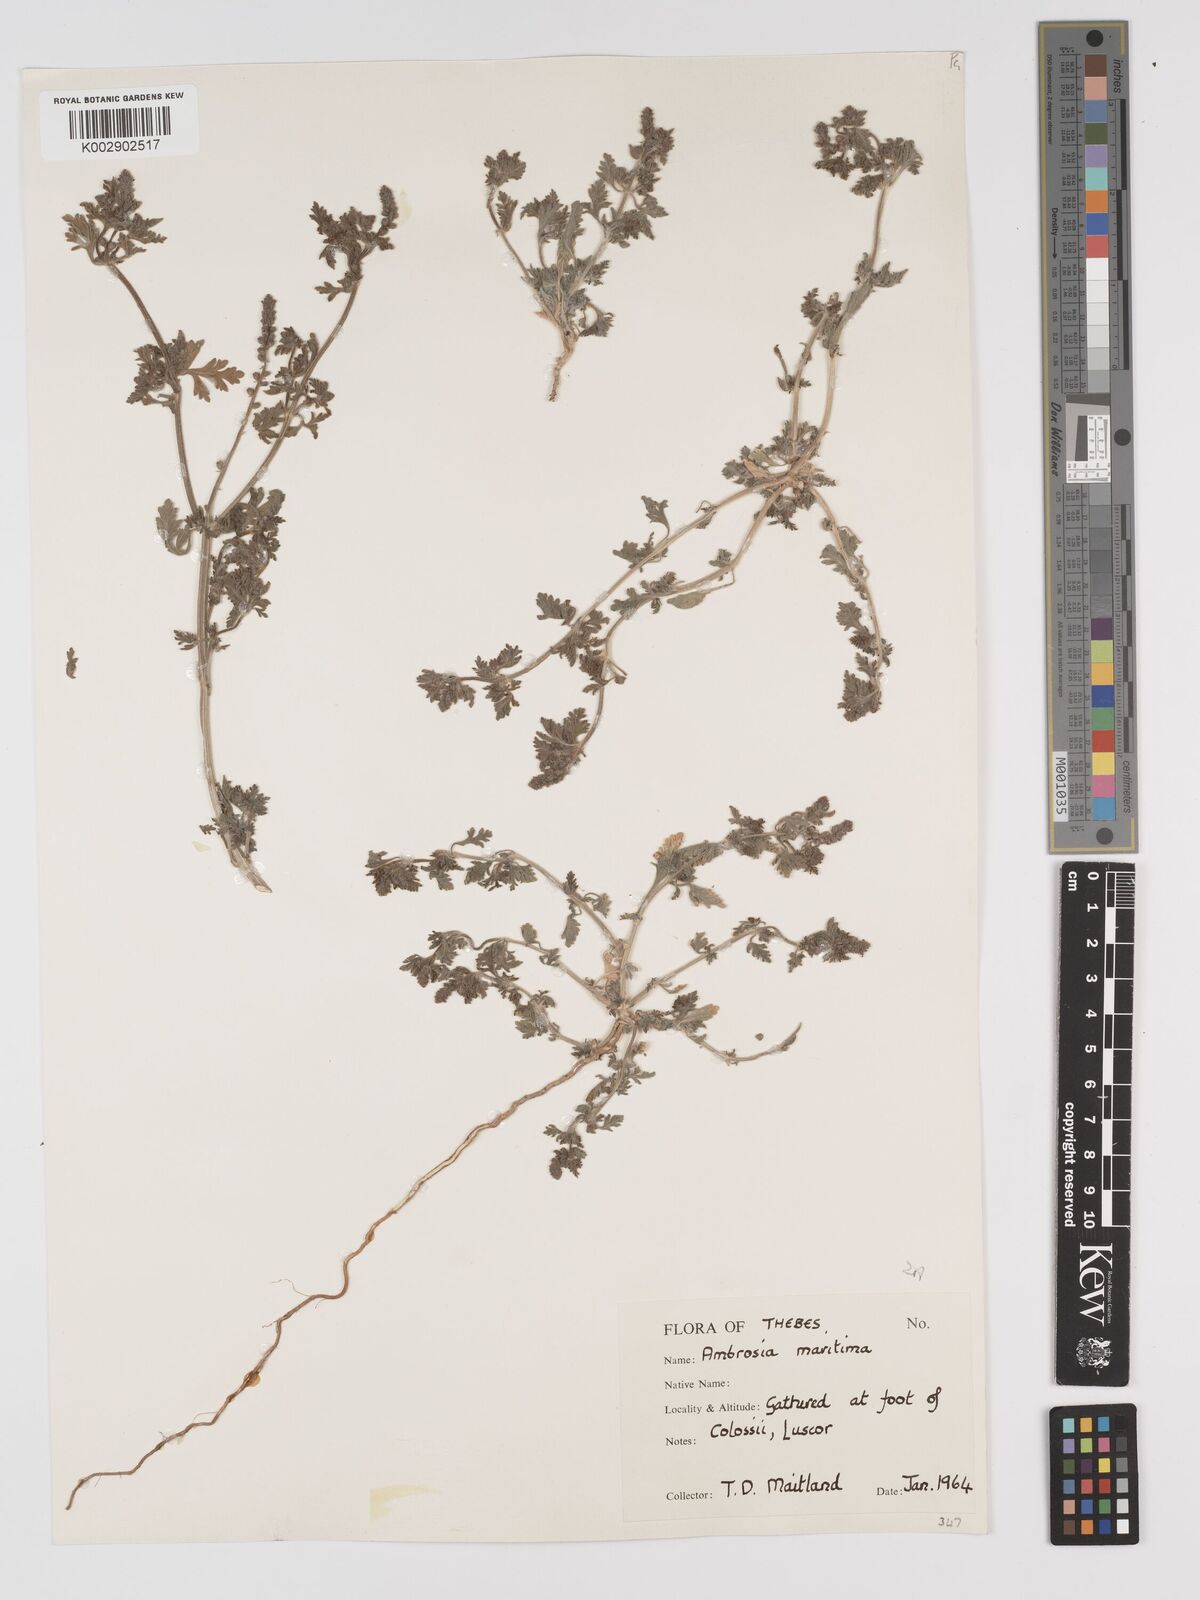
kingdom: Plantae
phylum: Tracheophyta
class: Magnoliopsida
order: Asterales
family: Asteraceae
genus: Ambrosia
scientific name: Ambrosia maritima
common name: Sea ambrosia
